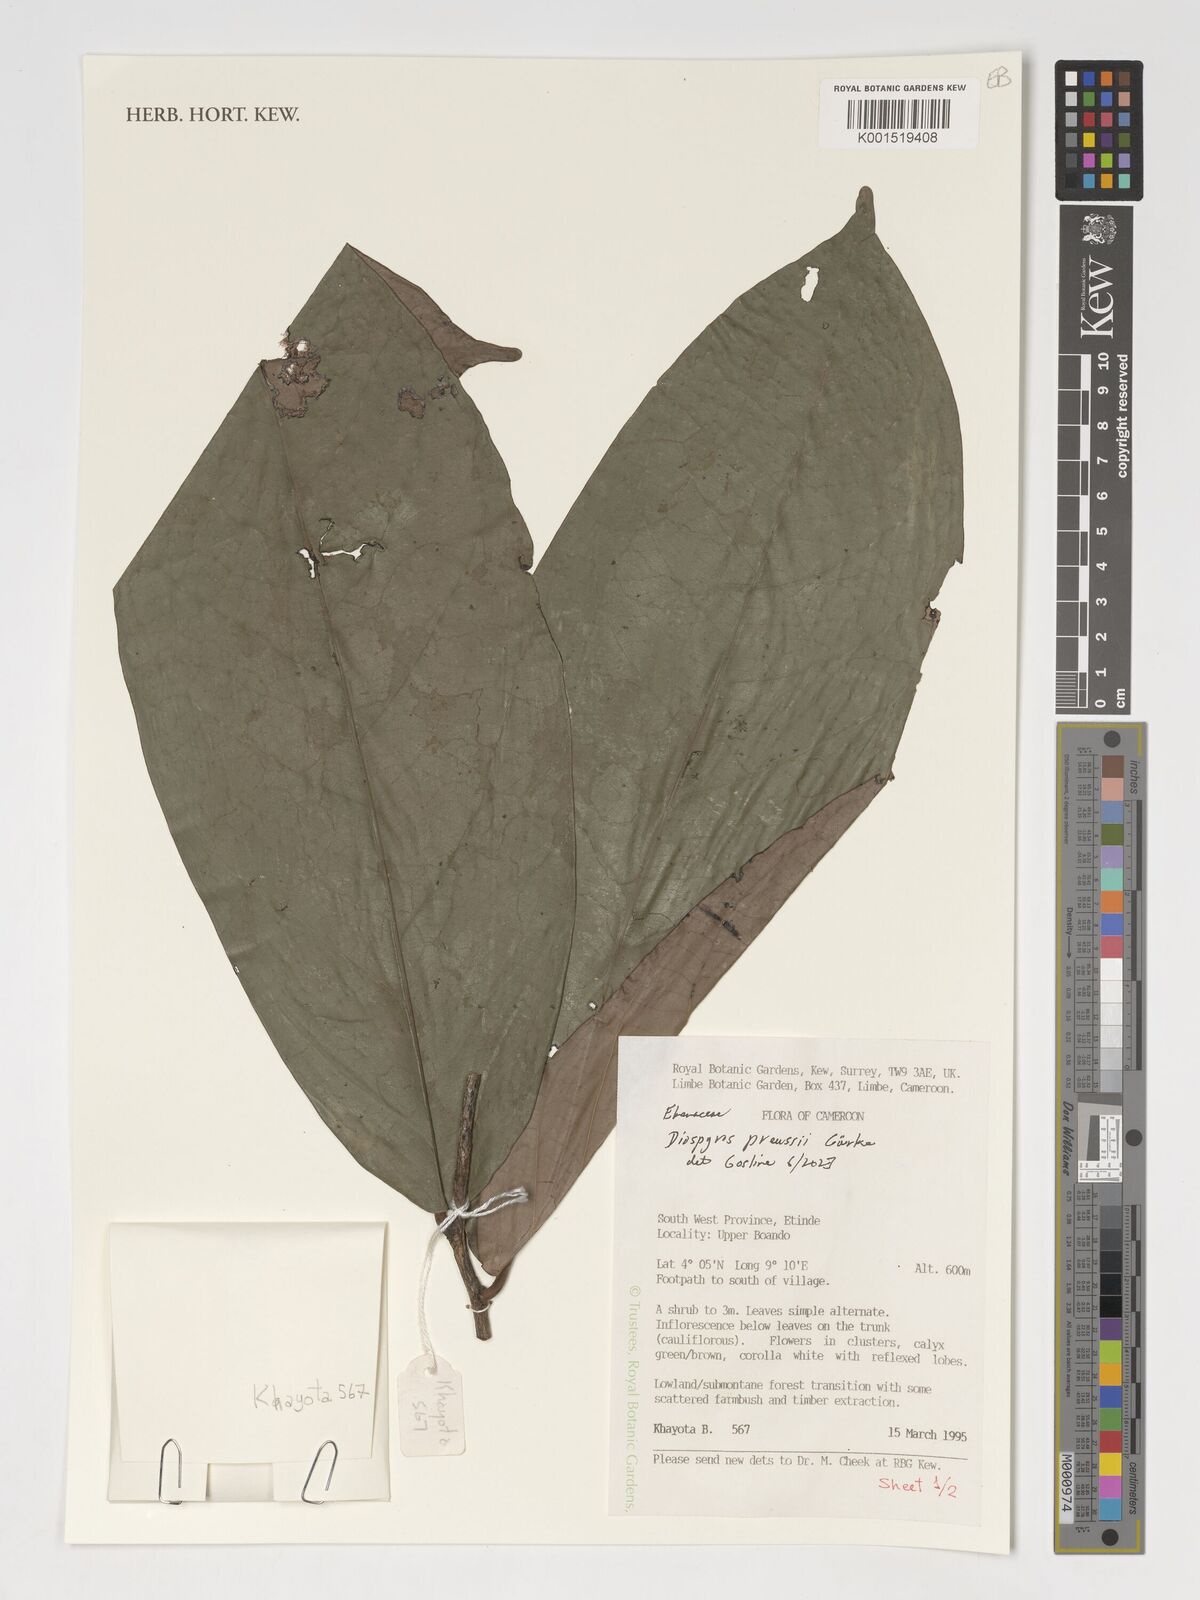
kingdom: Plantae
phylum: Tracheophyta
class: Magnoliopsida
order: Ericales
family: Ebenaceae
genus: Diospyros
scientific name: Diospyros preussii
